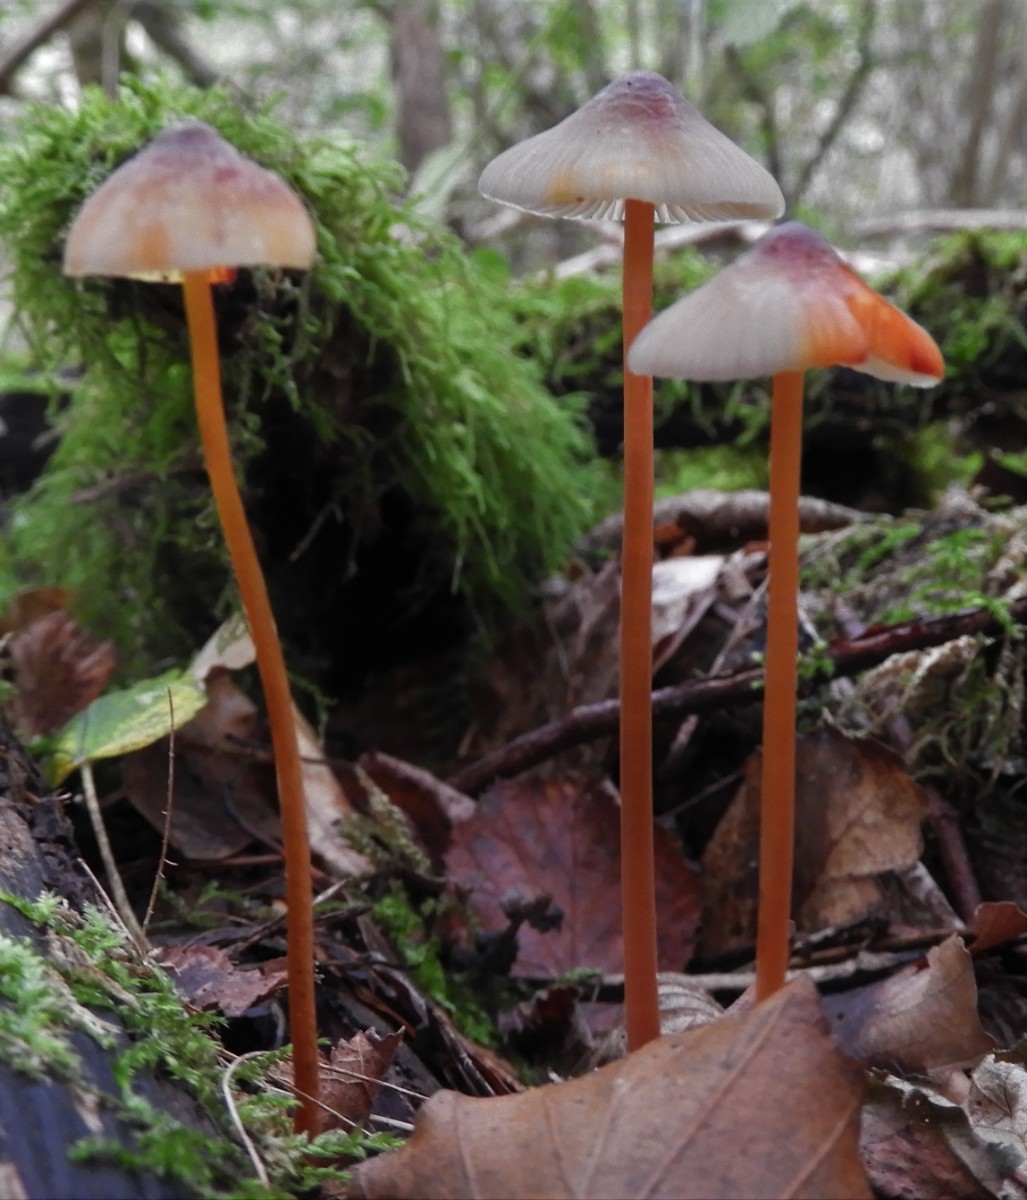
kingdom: Fungi
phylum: Basidiomycota
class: Agaricomycetes
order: Agaricales
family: Mycenaceae
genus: Mycena
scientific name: Mycena crocata
